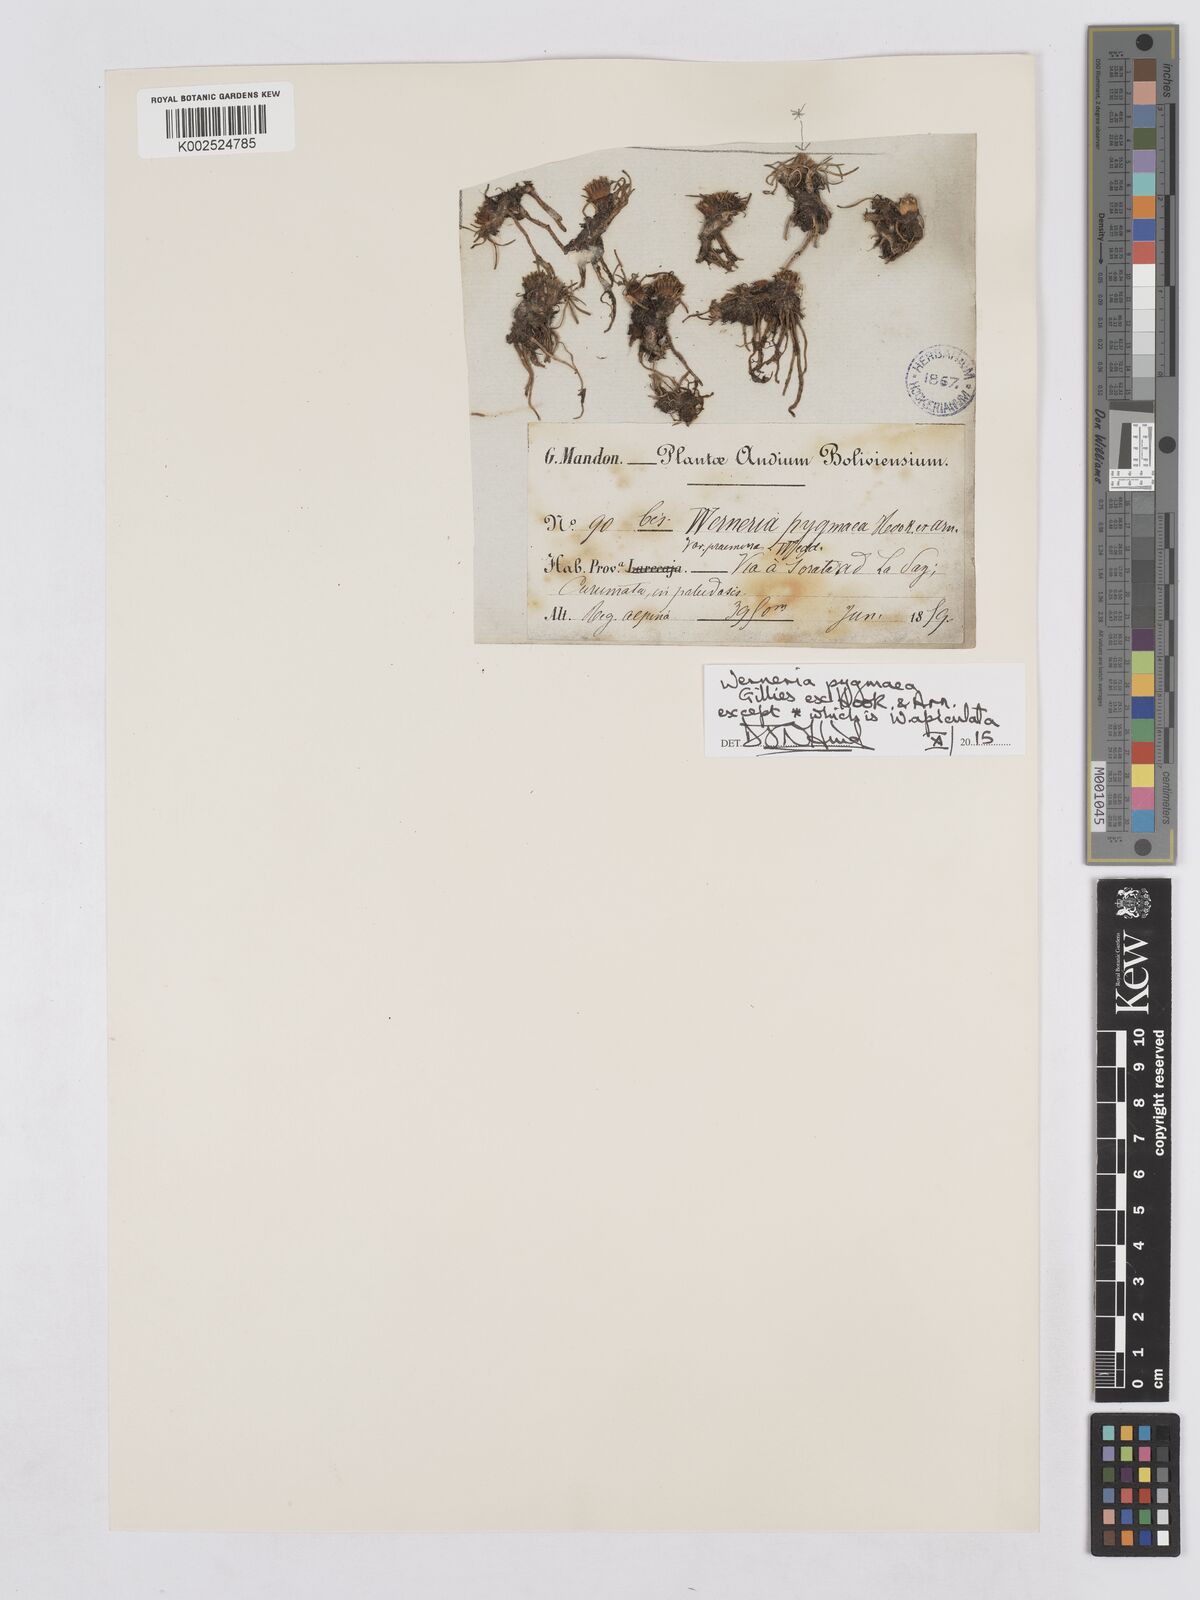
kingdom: Plantae
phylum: Tracheophyta
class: Magnoliopsida
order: Asterales
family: Asteraceae
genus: Rockhausenia
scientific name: Rockhausenia pygmaea
